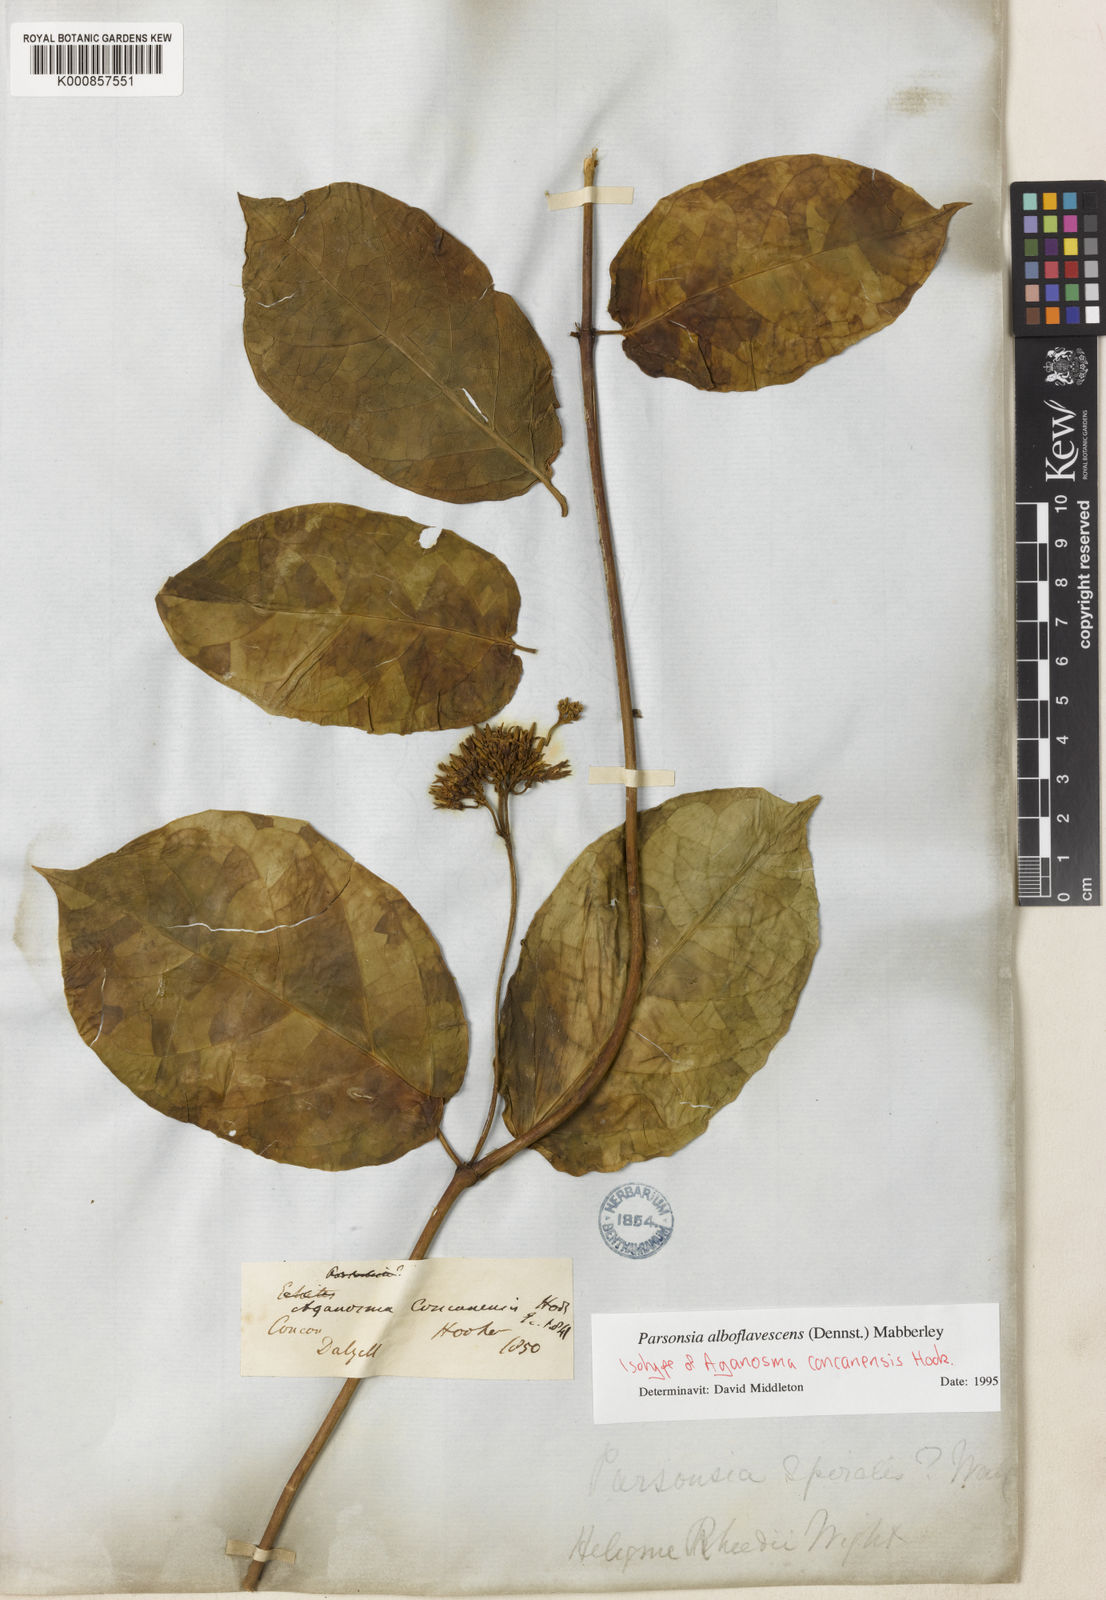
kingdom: Plantae
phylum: Tracheophyta
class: Magnoliopsida
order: Gentianales
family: Apocynaceae
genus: Parsonsia
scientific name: Parsonsia alboflavescens
